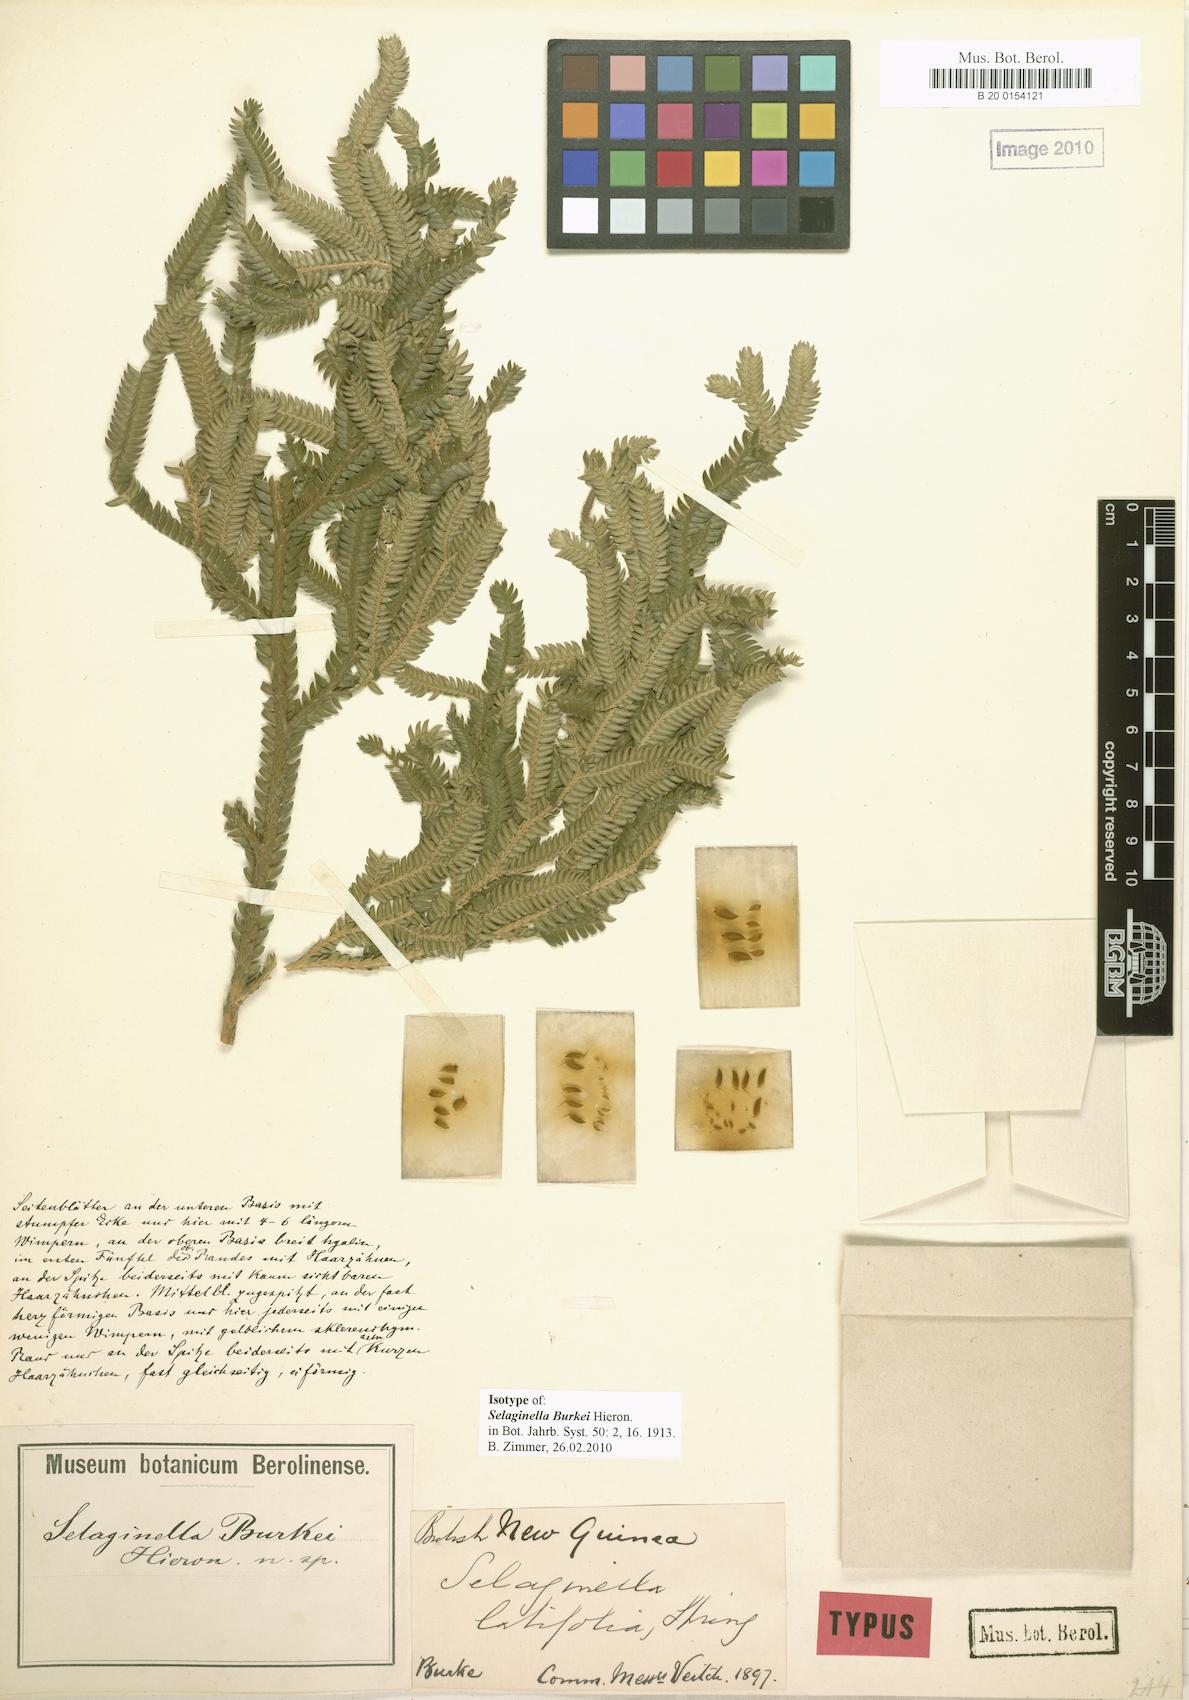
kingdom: Plantae
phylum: Tracheophyta
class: Lycopodiopsida
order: Selaginellales
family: Selaginellaceae
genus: Selaginella
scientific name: Selaginella burkei
